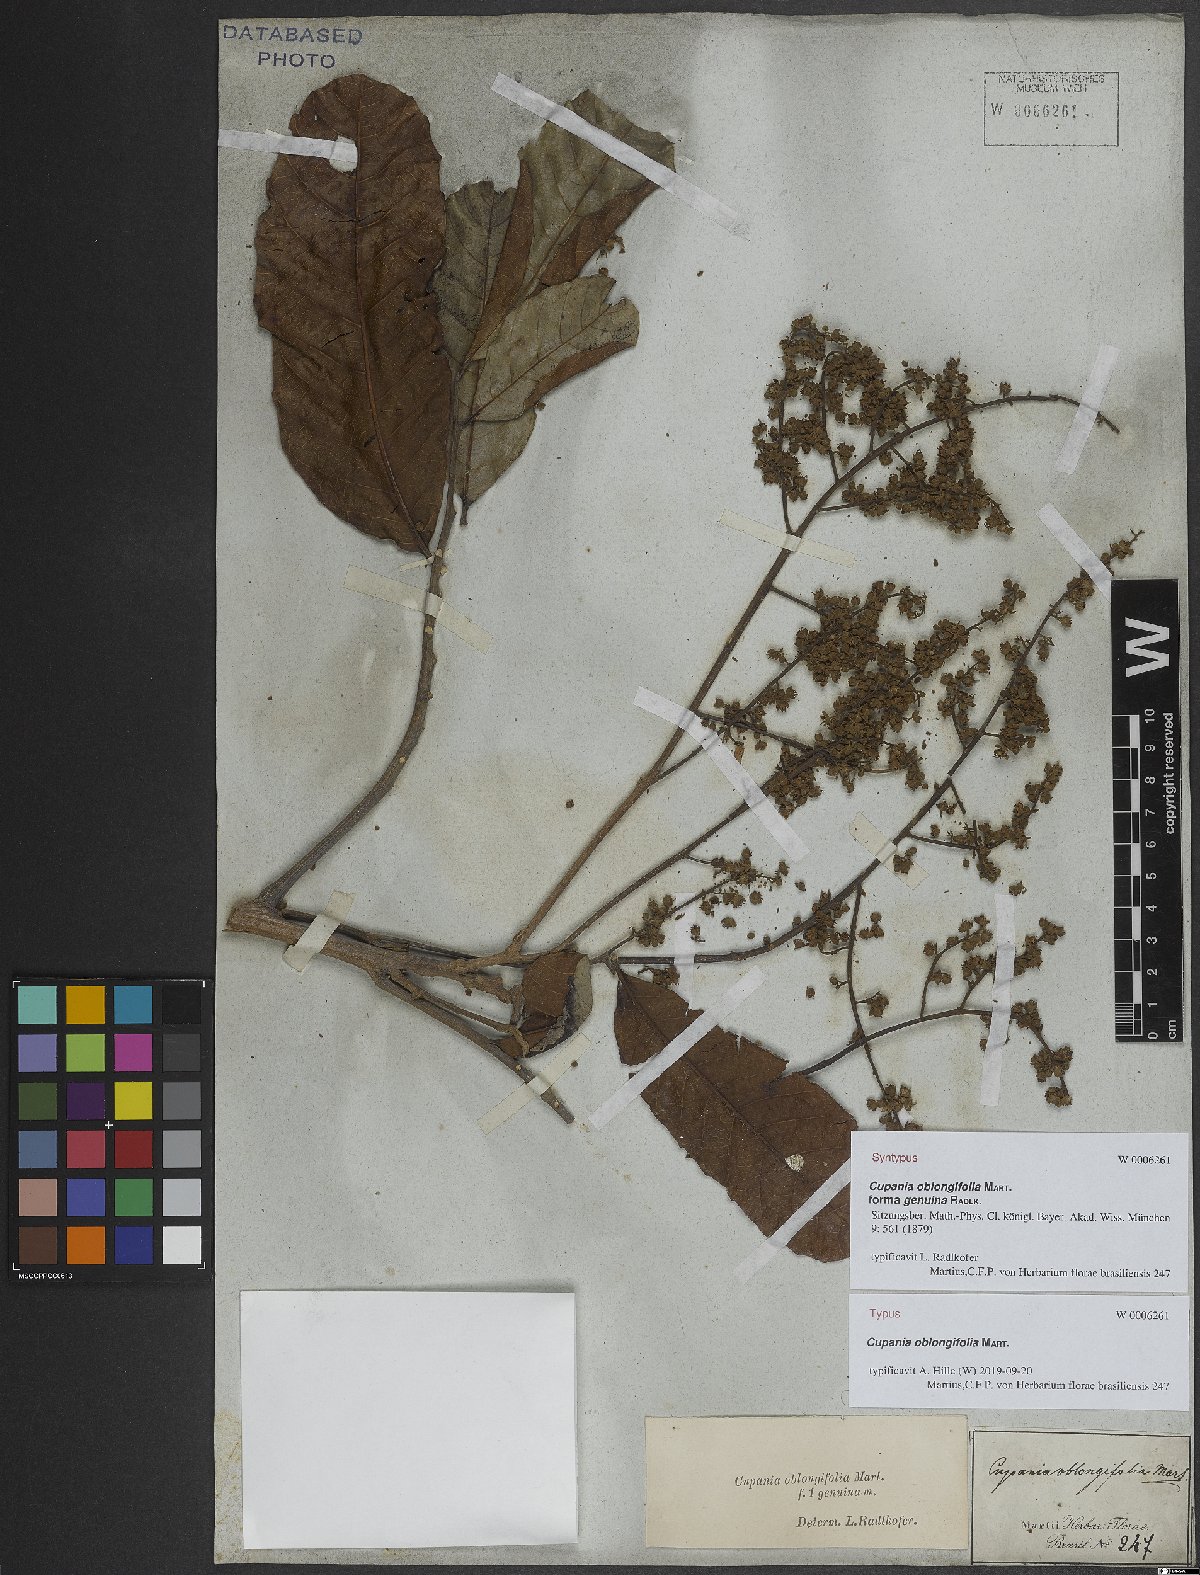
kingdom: Plantae
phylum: Tracheophyta
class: Magnoliopsida
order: Sapindales
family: Sapindaceae
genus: Cupania
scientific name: Cupania oblongifolia
